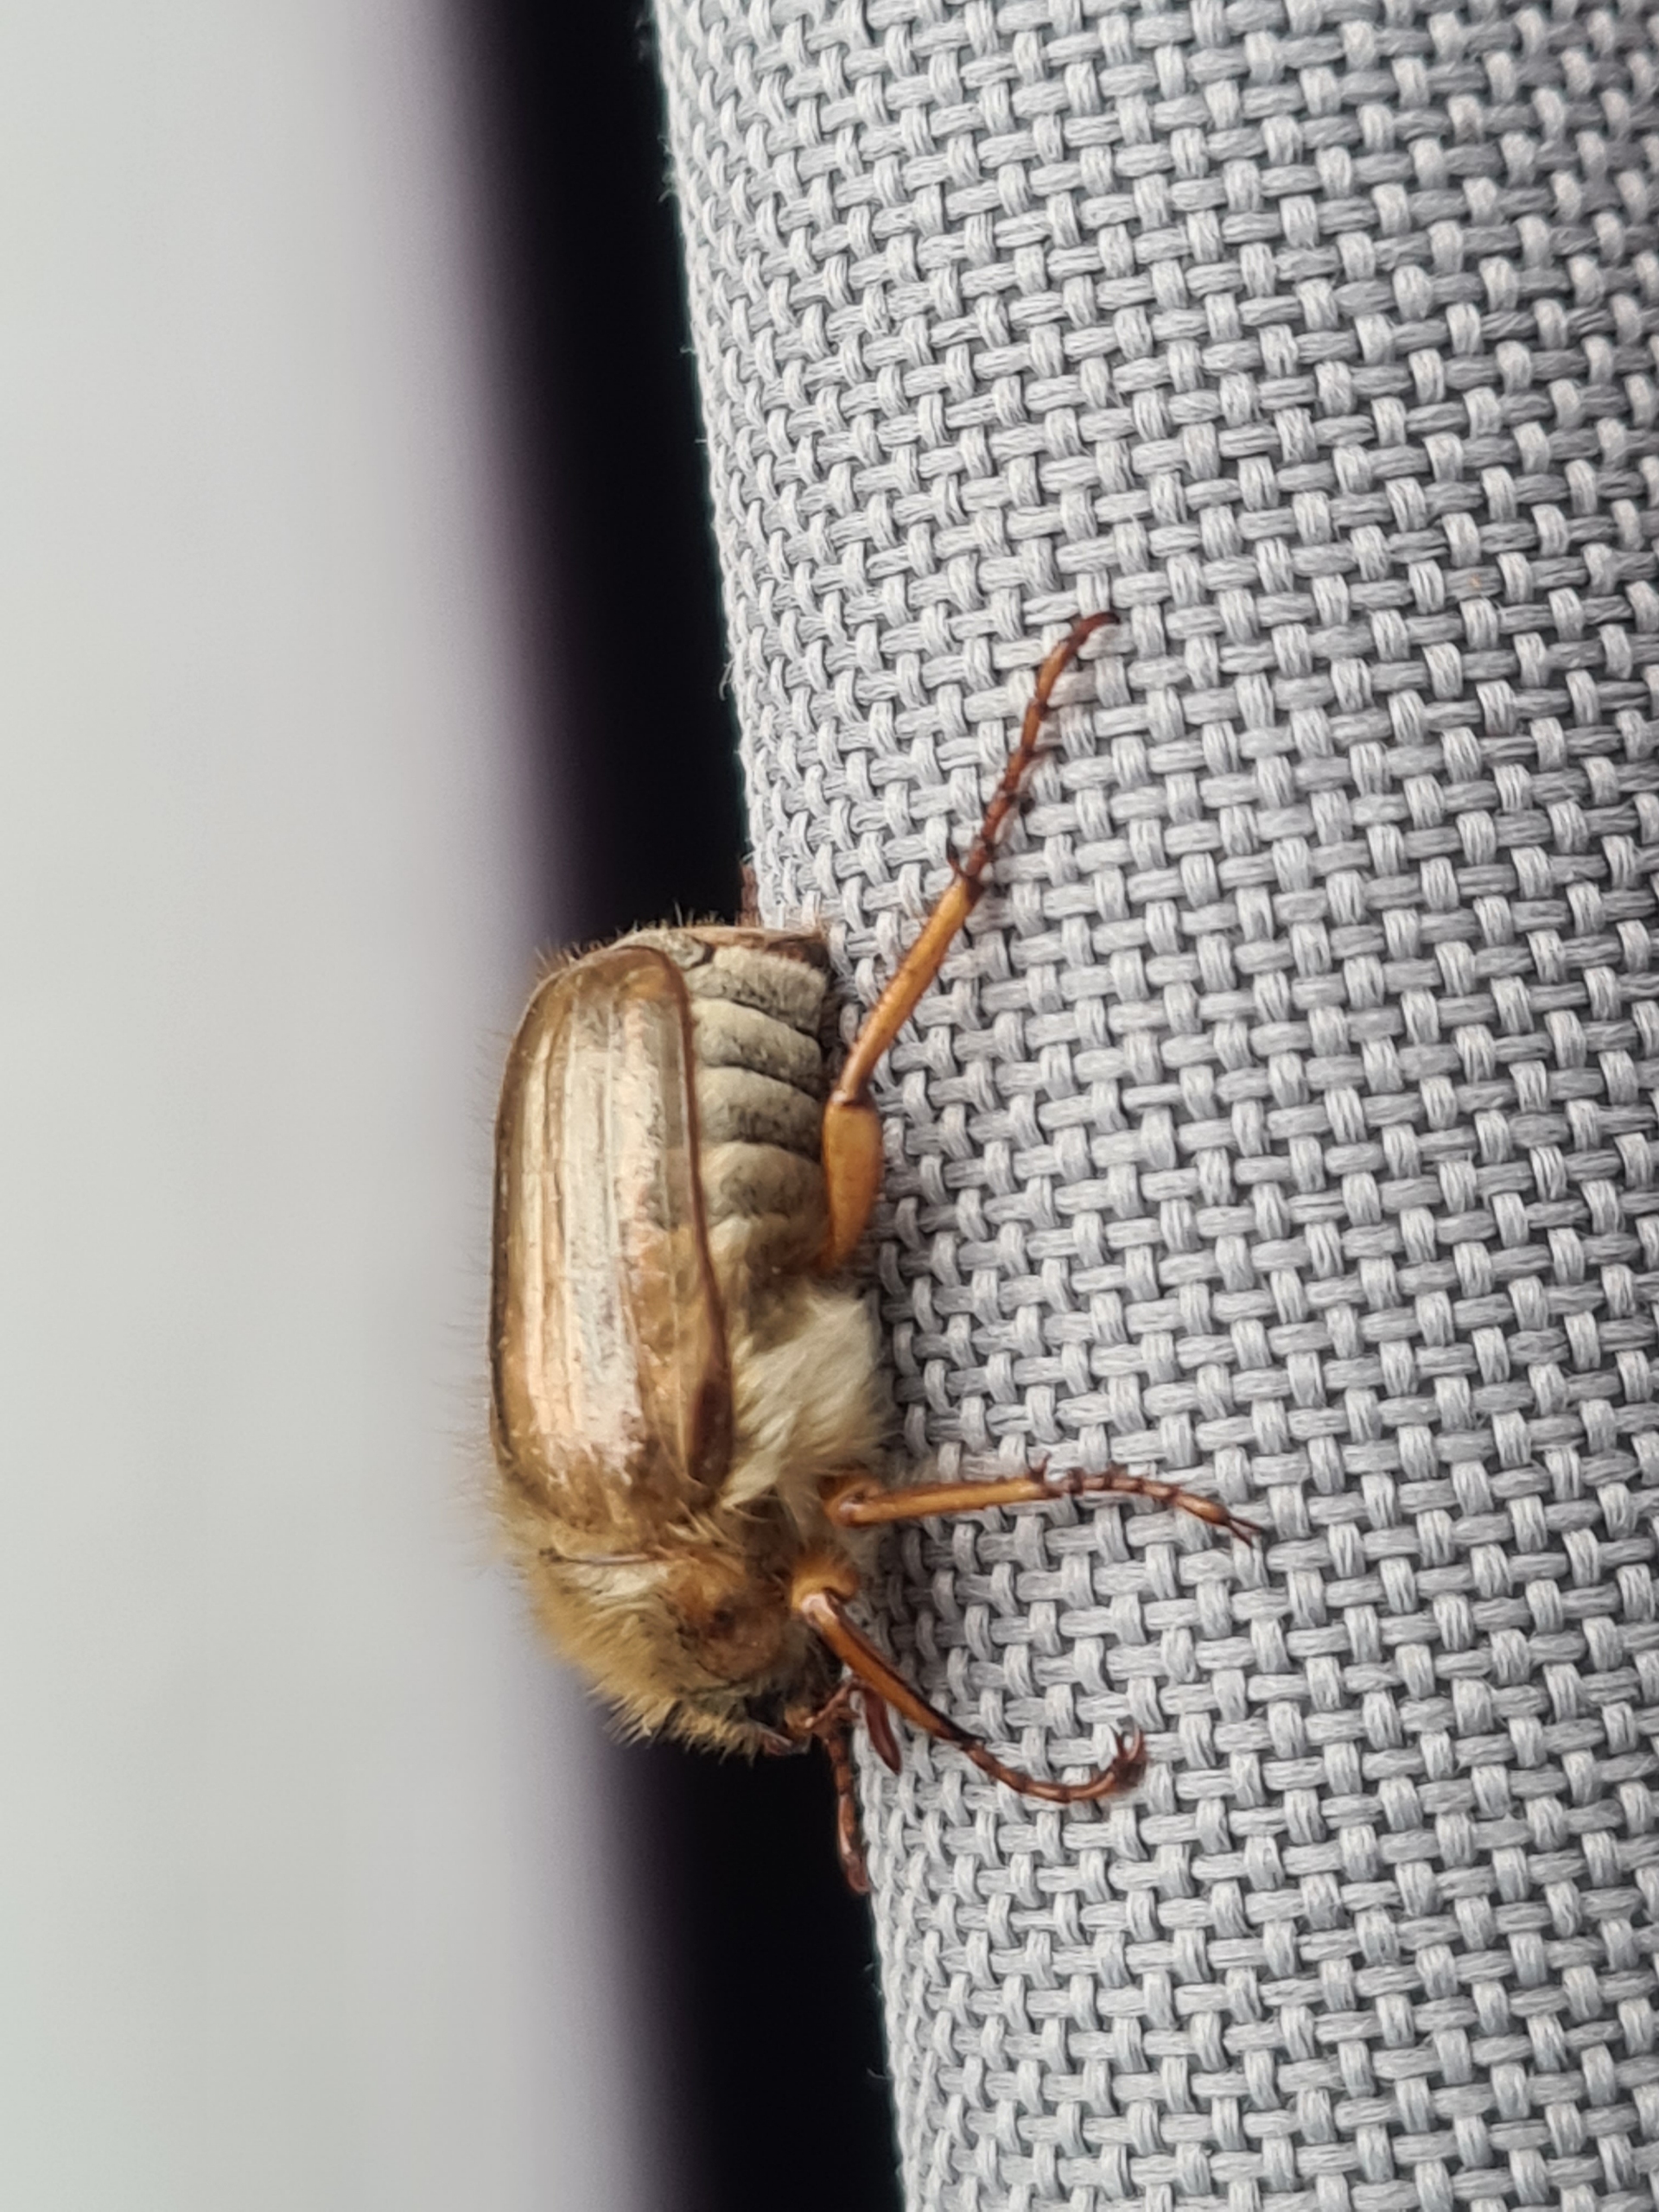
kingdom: Animalia
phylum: Arthropoda
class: Insecta
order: Coleoptera
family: Scarabaeidae
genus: Amphimallon
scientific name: Amphimallon solstitiale
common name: Sankthansoldenborre
